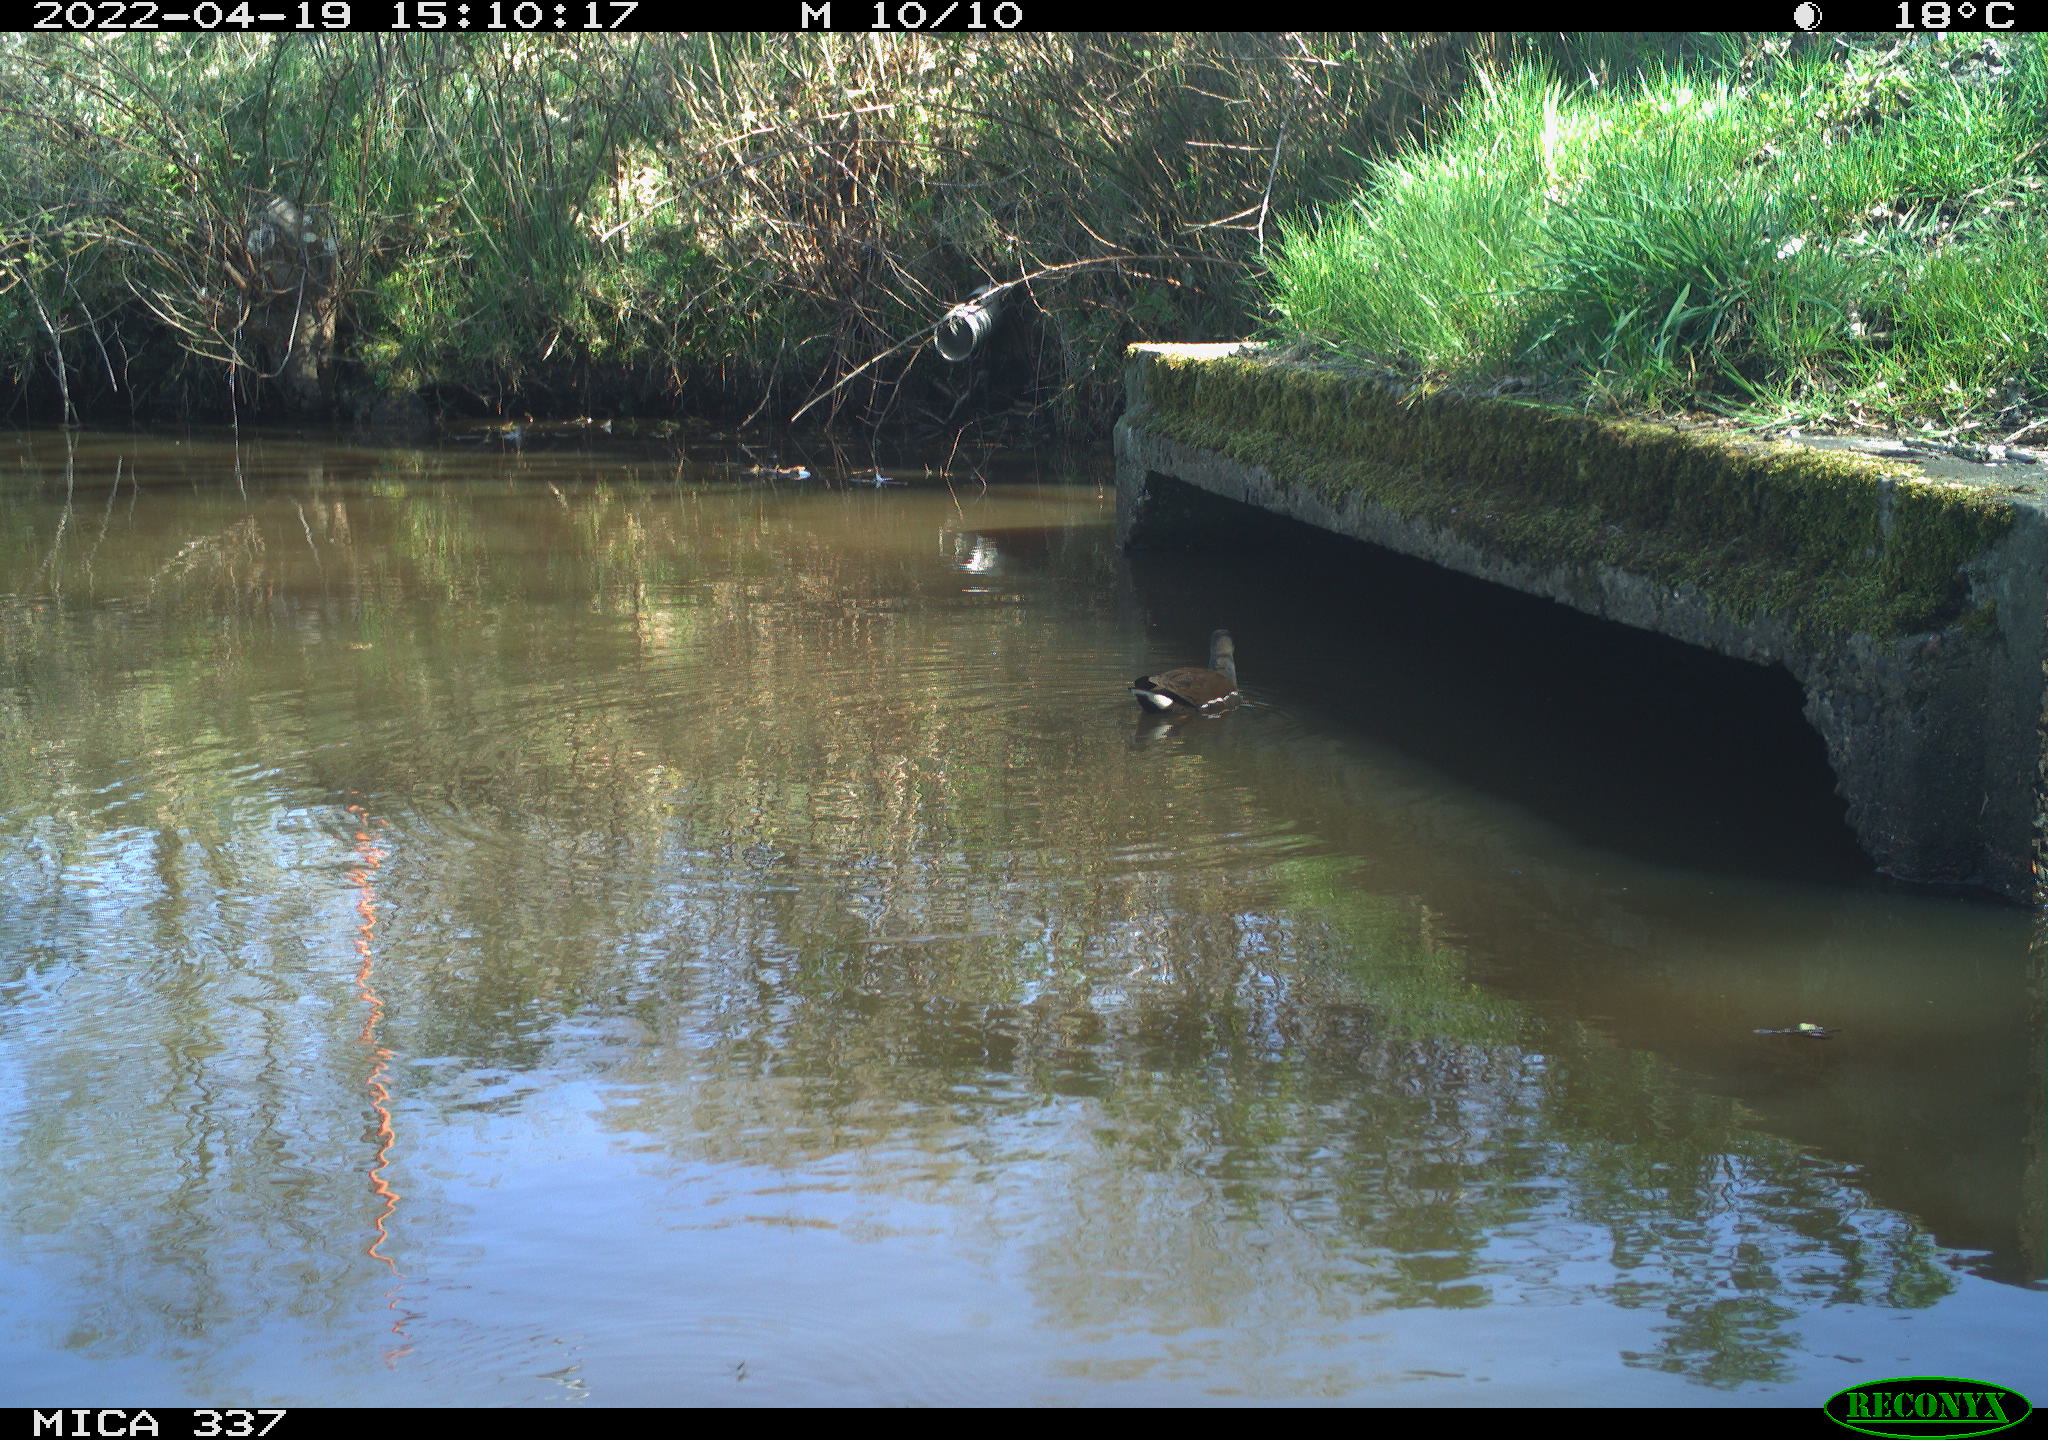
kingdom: Animalia
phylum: Chordata
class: Aves
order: Gruiformes
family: Rallidae
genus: Gallinula
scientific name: Gallinula chloropus
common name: Common moorhen
